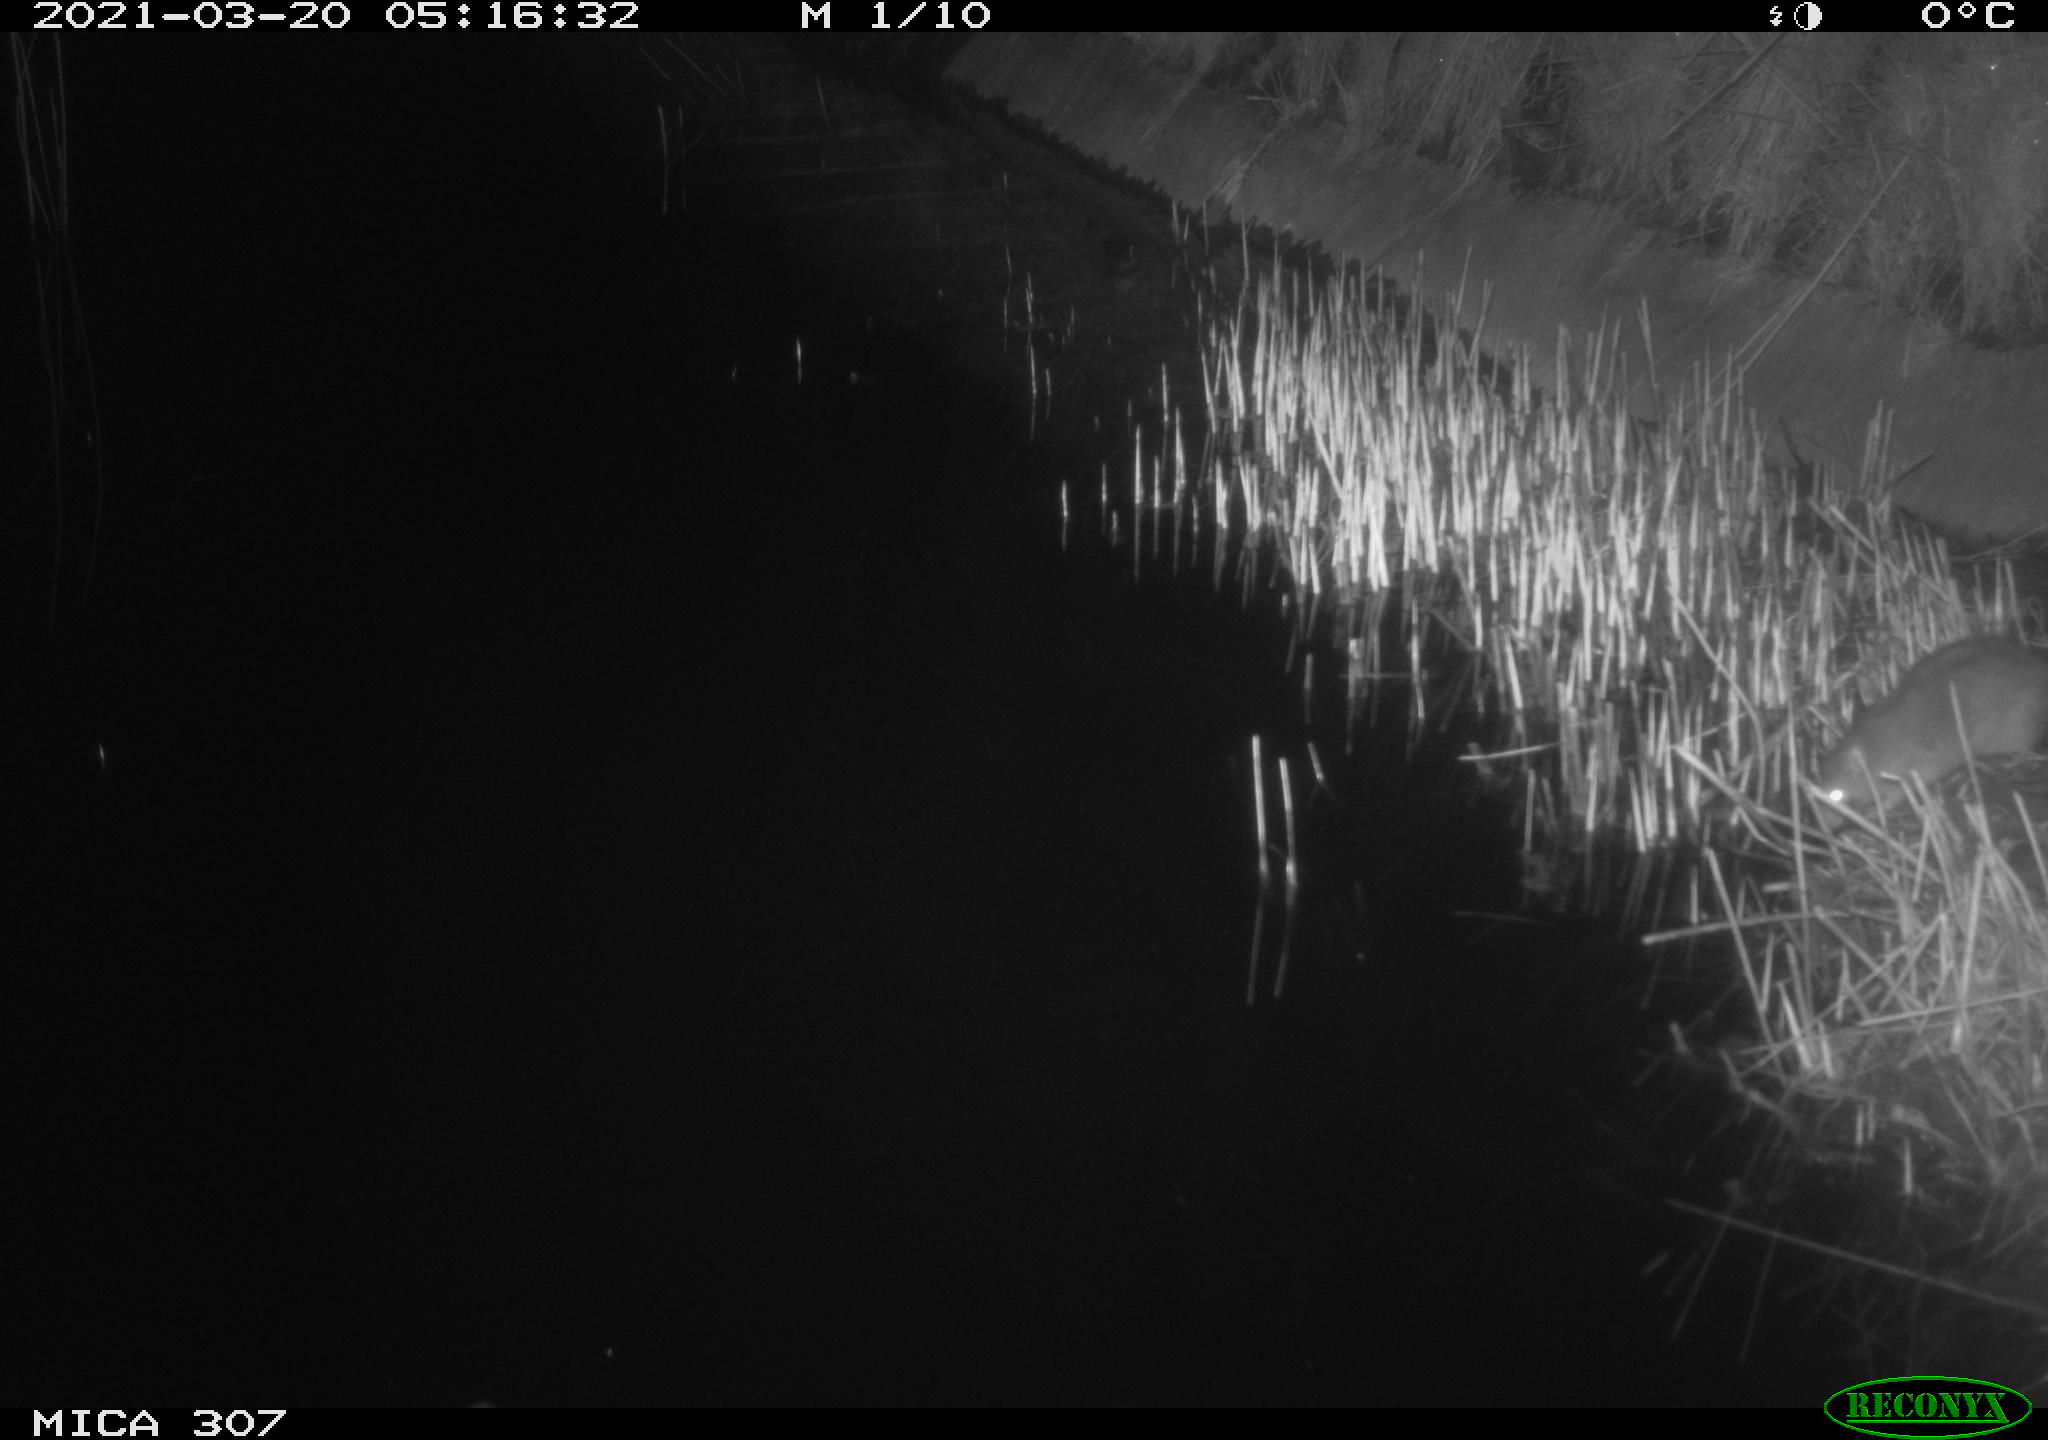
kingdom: Animalia
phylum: Chordata
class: Mammalia
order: Rodentia
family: Muridae
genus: Rattus
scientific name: Rattus norvegicus
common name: Brown rat
